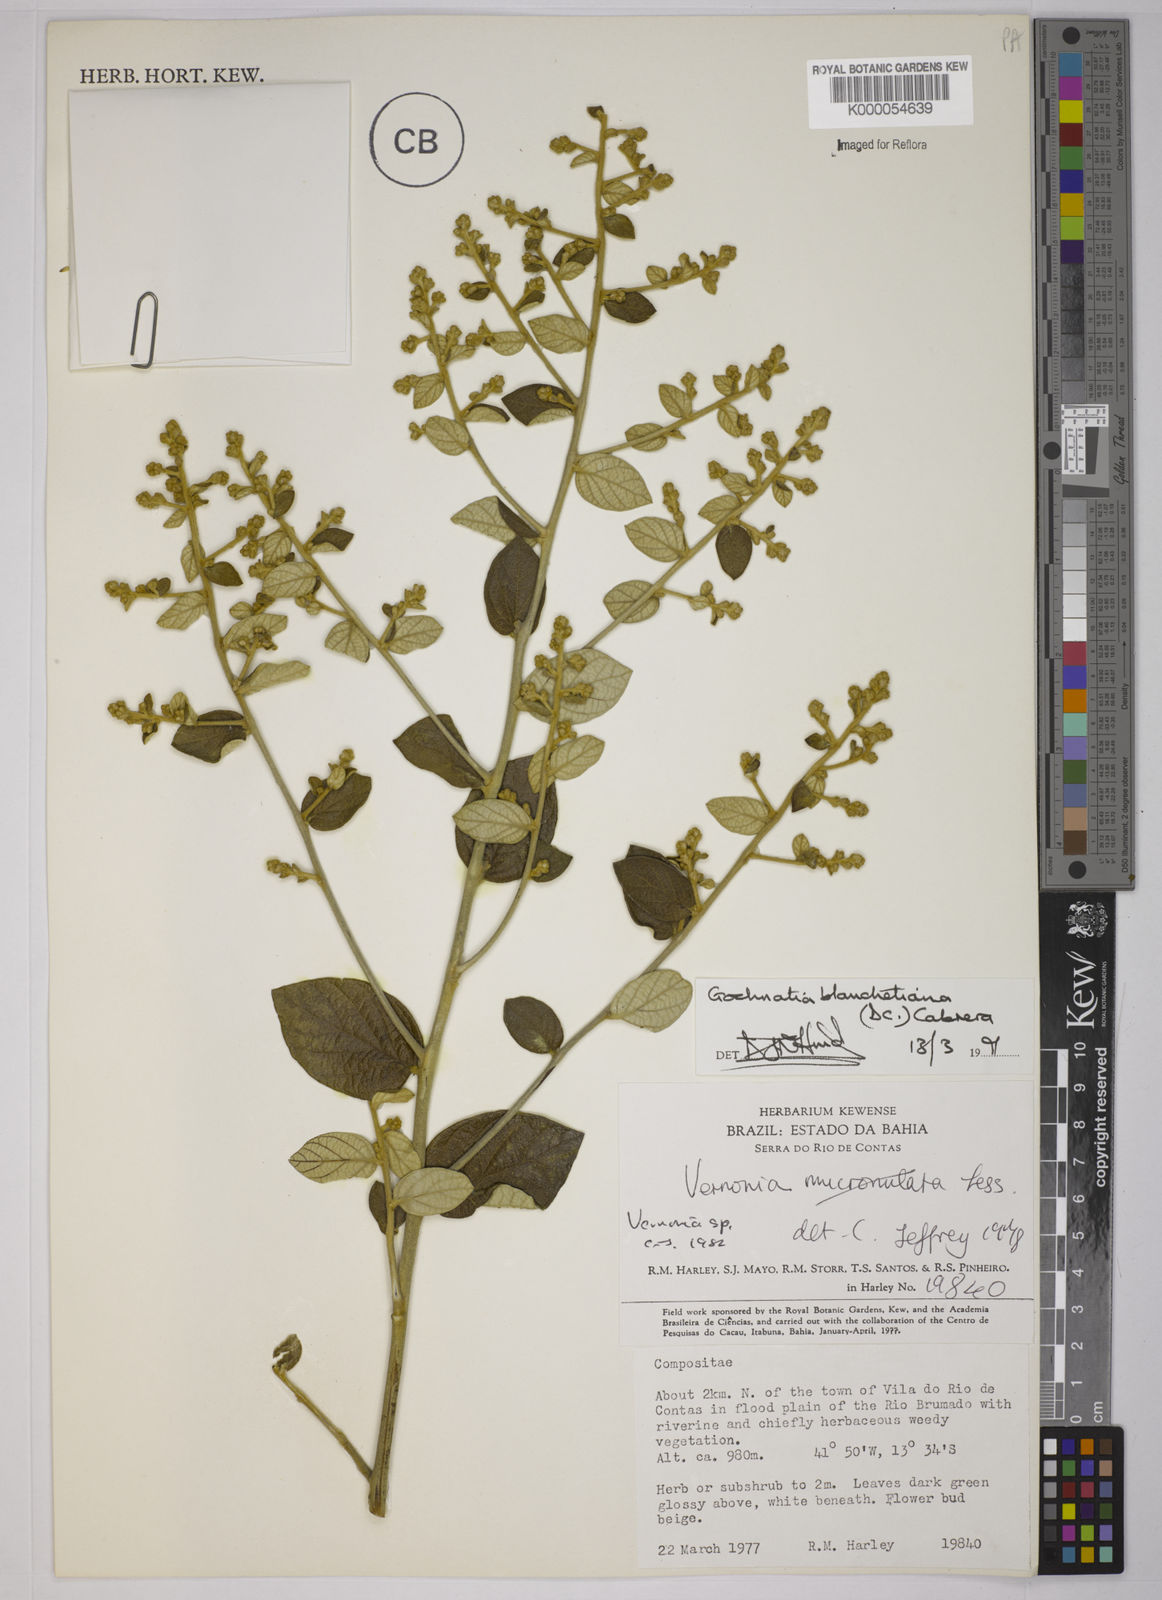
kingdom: Plantae
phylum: Tracheophyta
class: Magnoliopsida
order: Asterales
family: Asteraceae
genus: Moquiniastrum
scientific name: Moquiniastrum blanchetianum
